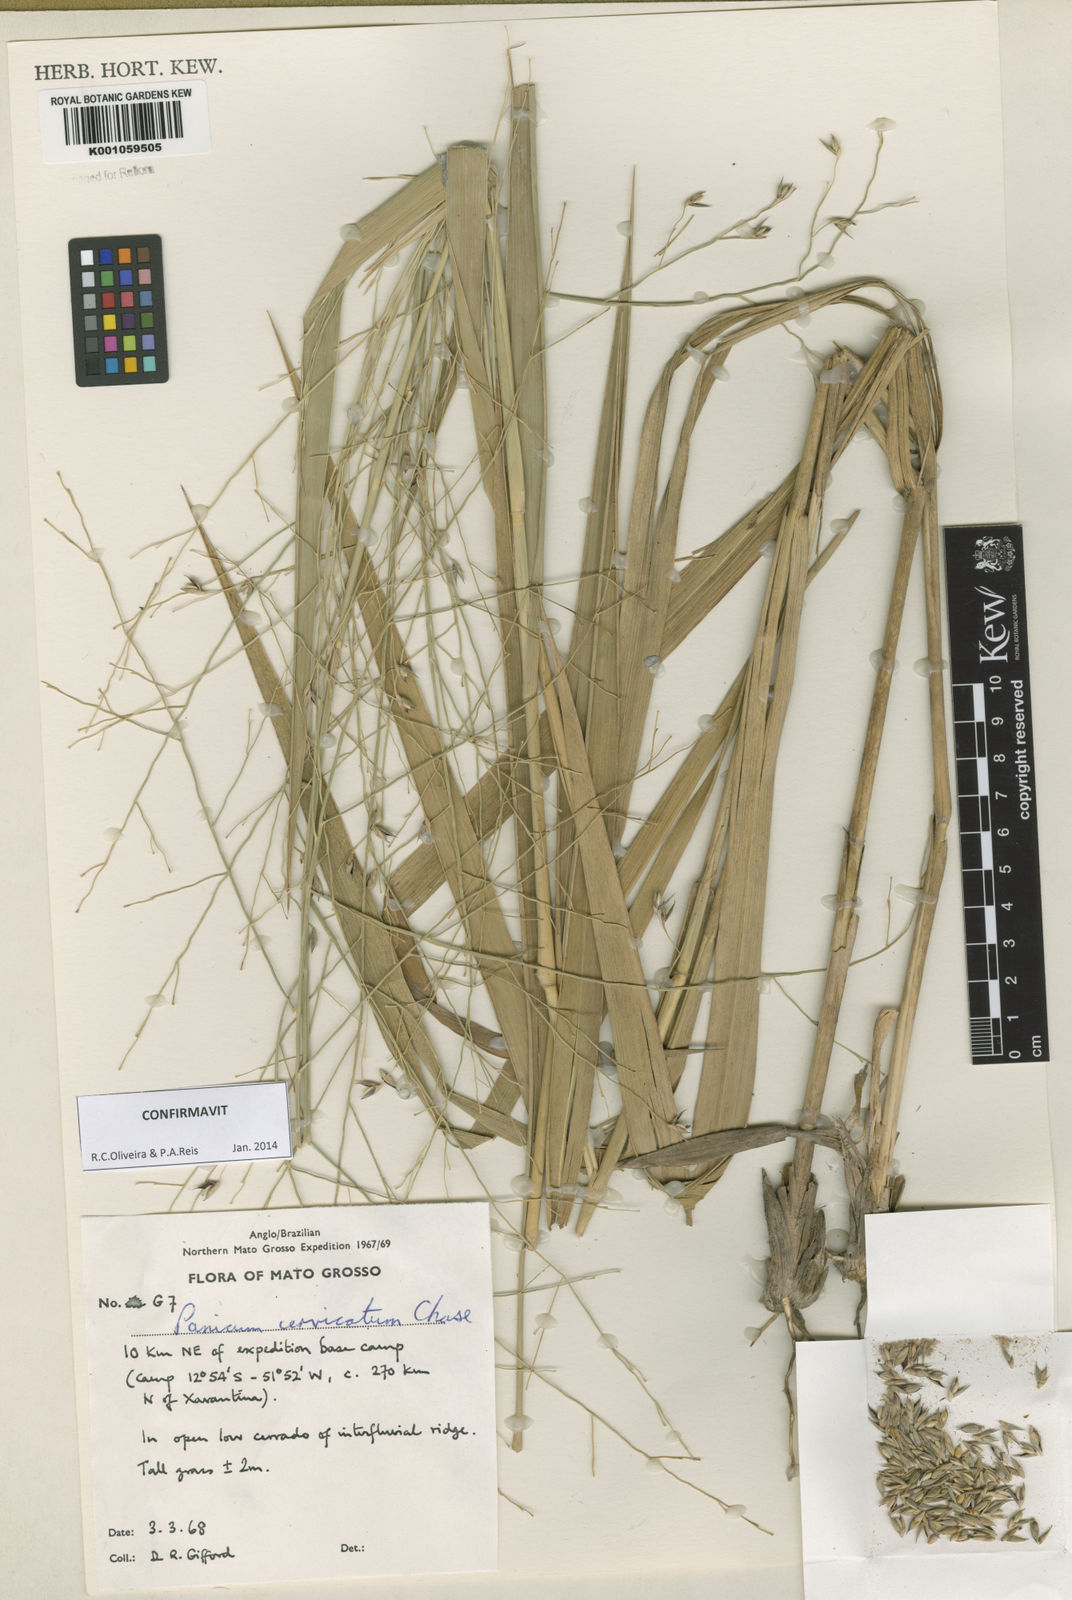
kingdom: Plantae
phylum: Tracheophyta
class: Liliopsida
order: Poales
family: Poaceae
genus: Panicum
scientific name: Panicum cervicatum
